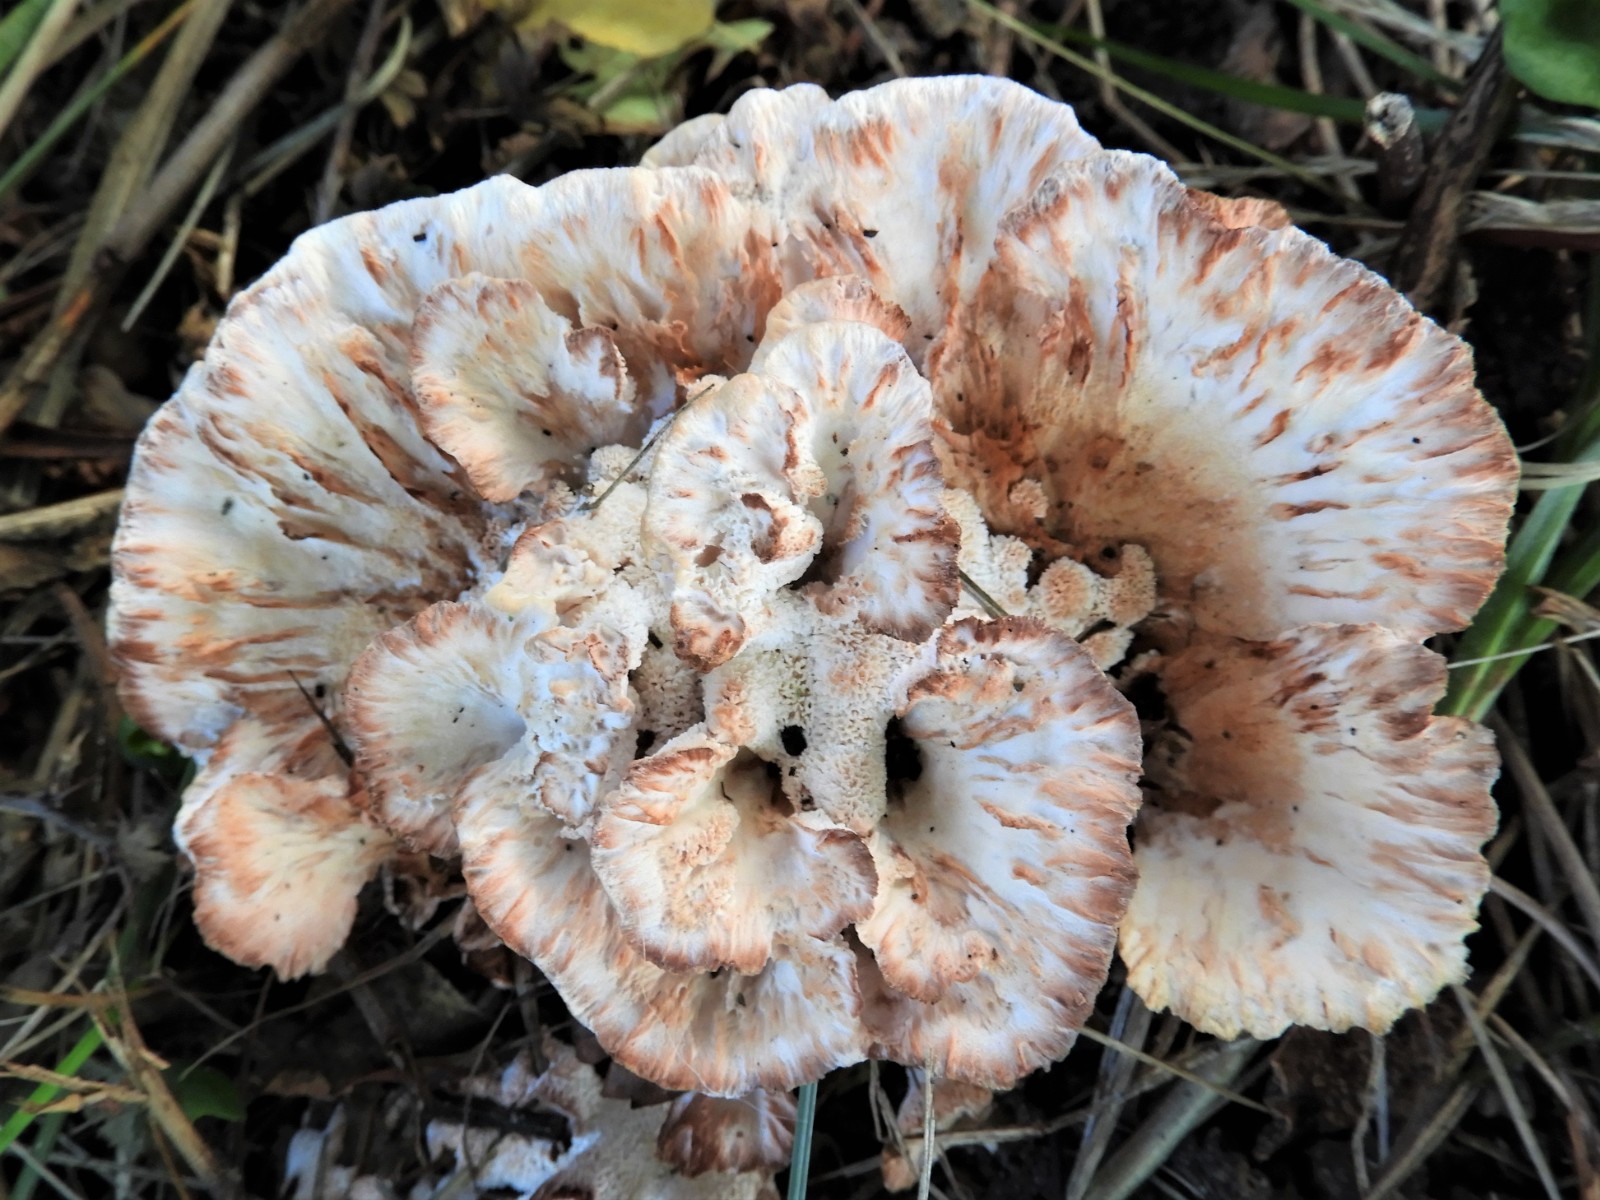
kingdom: Fungi
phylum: Basidiomycota
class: Agaricomycetes
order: Polyporales
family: Podoscyphaceae
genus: Abortiporus
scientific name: Abortiporus biennis
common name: rødmende pjalteporesvamp
